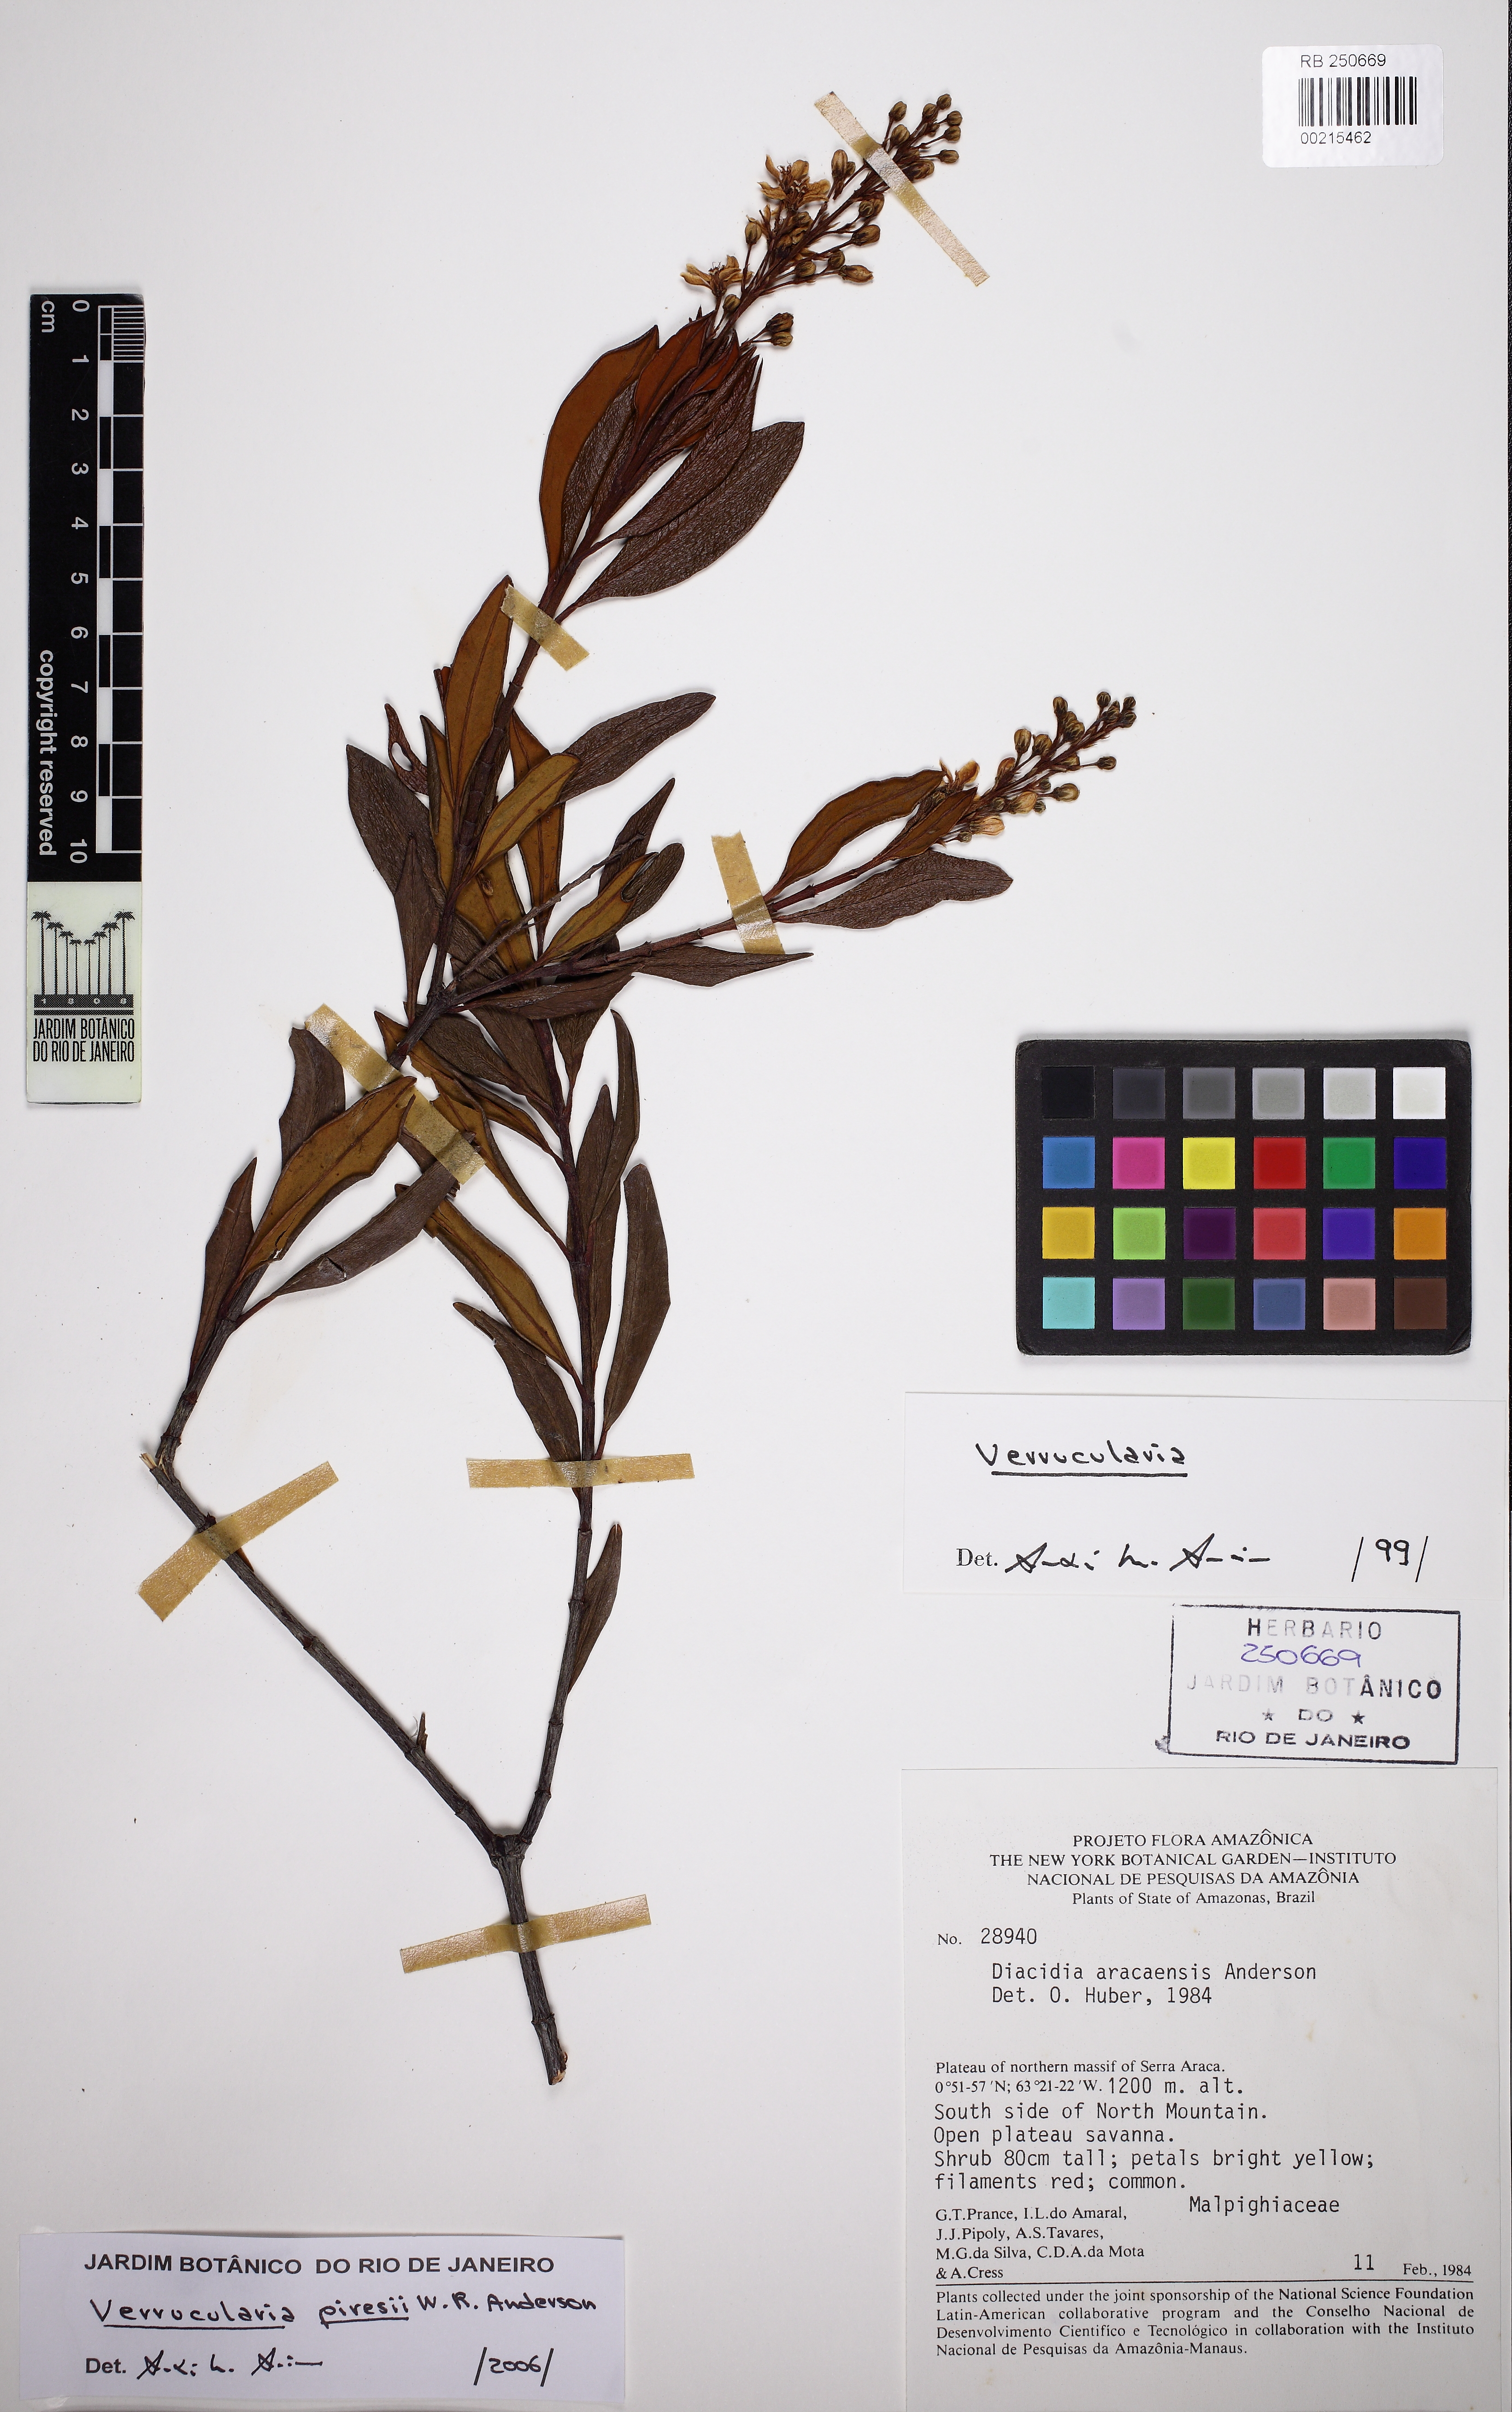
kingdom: Plantae
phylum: Tracheophyta
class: Magnoliopsida
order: Malpighiales
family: Malpighiaceae
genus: Verrucularina
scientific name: Verrucularina piresii
